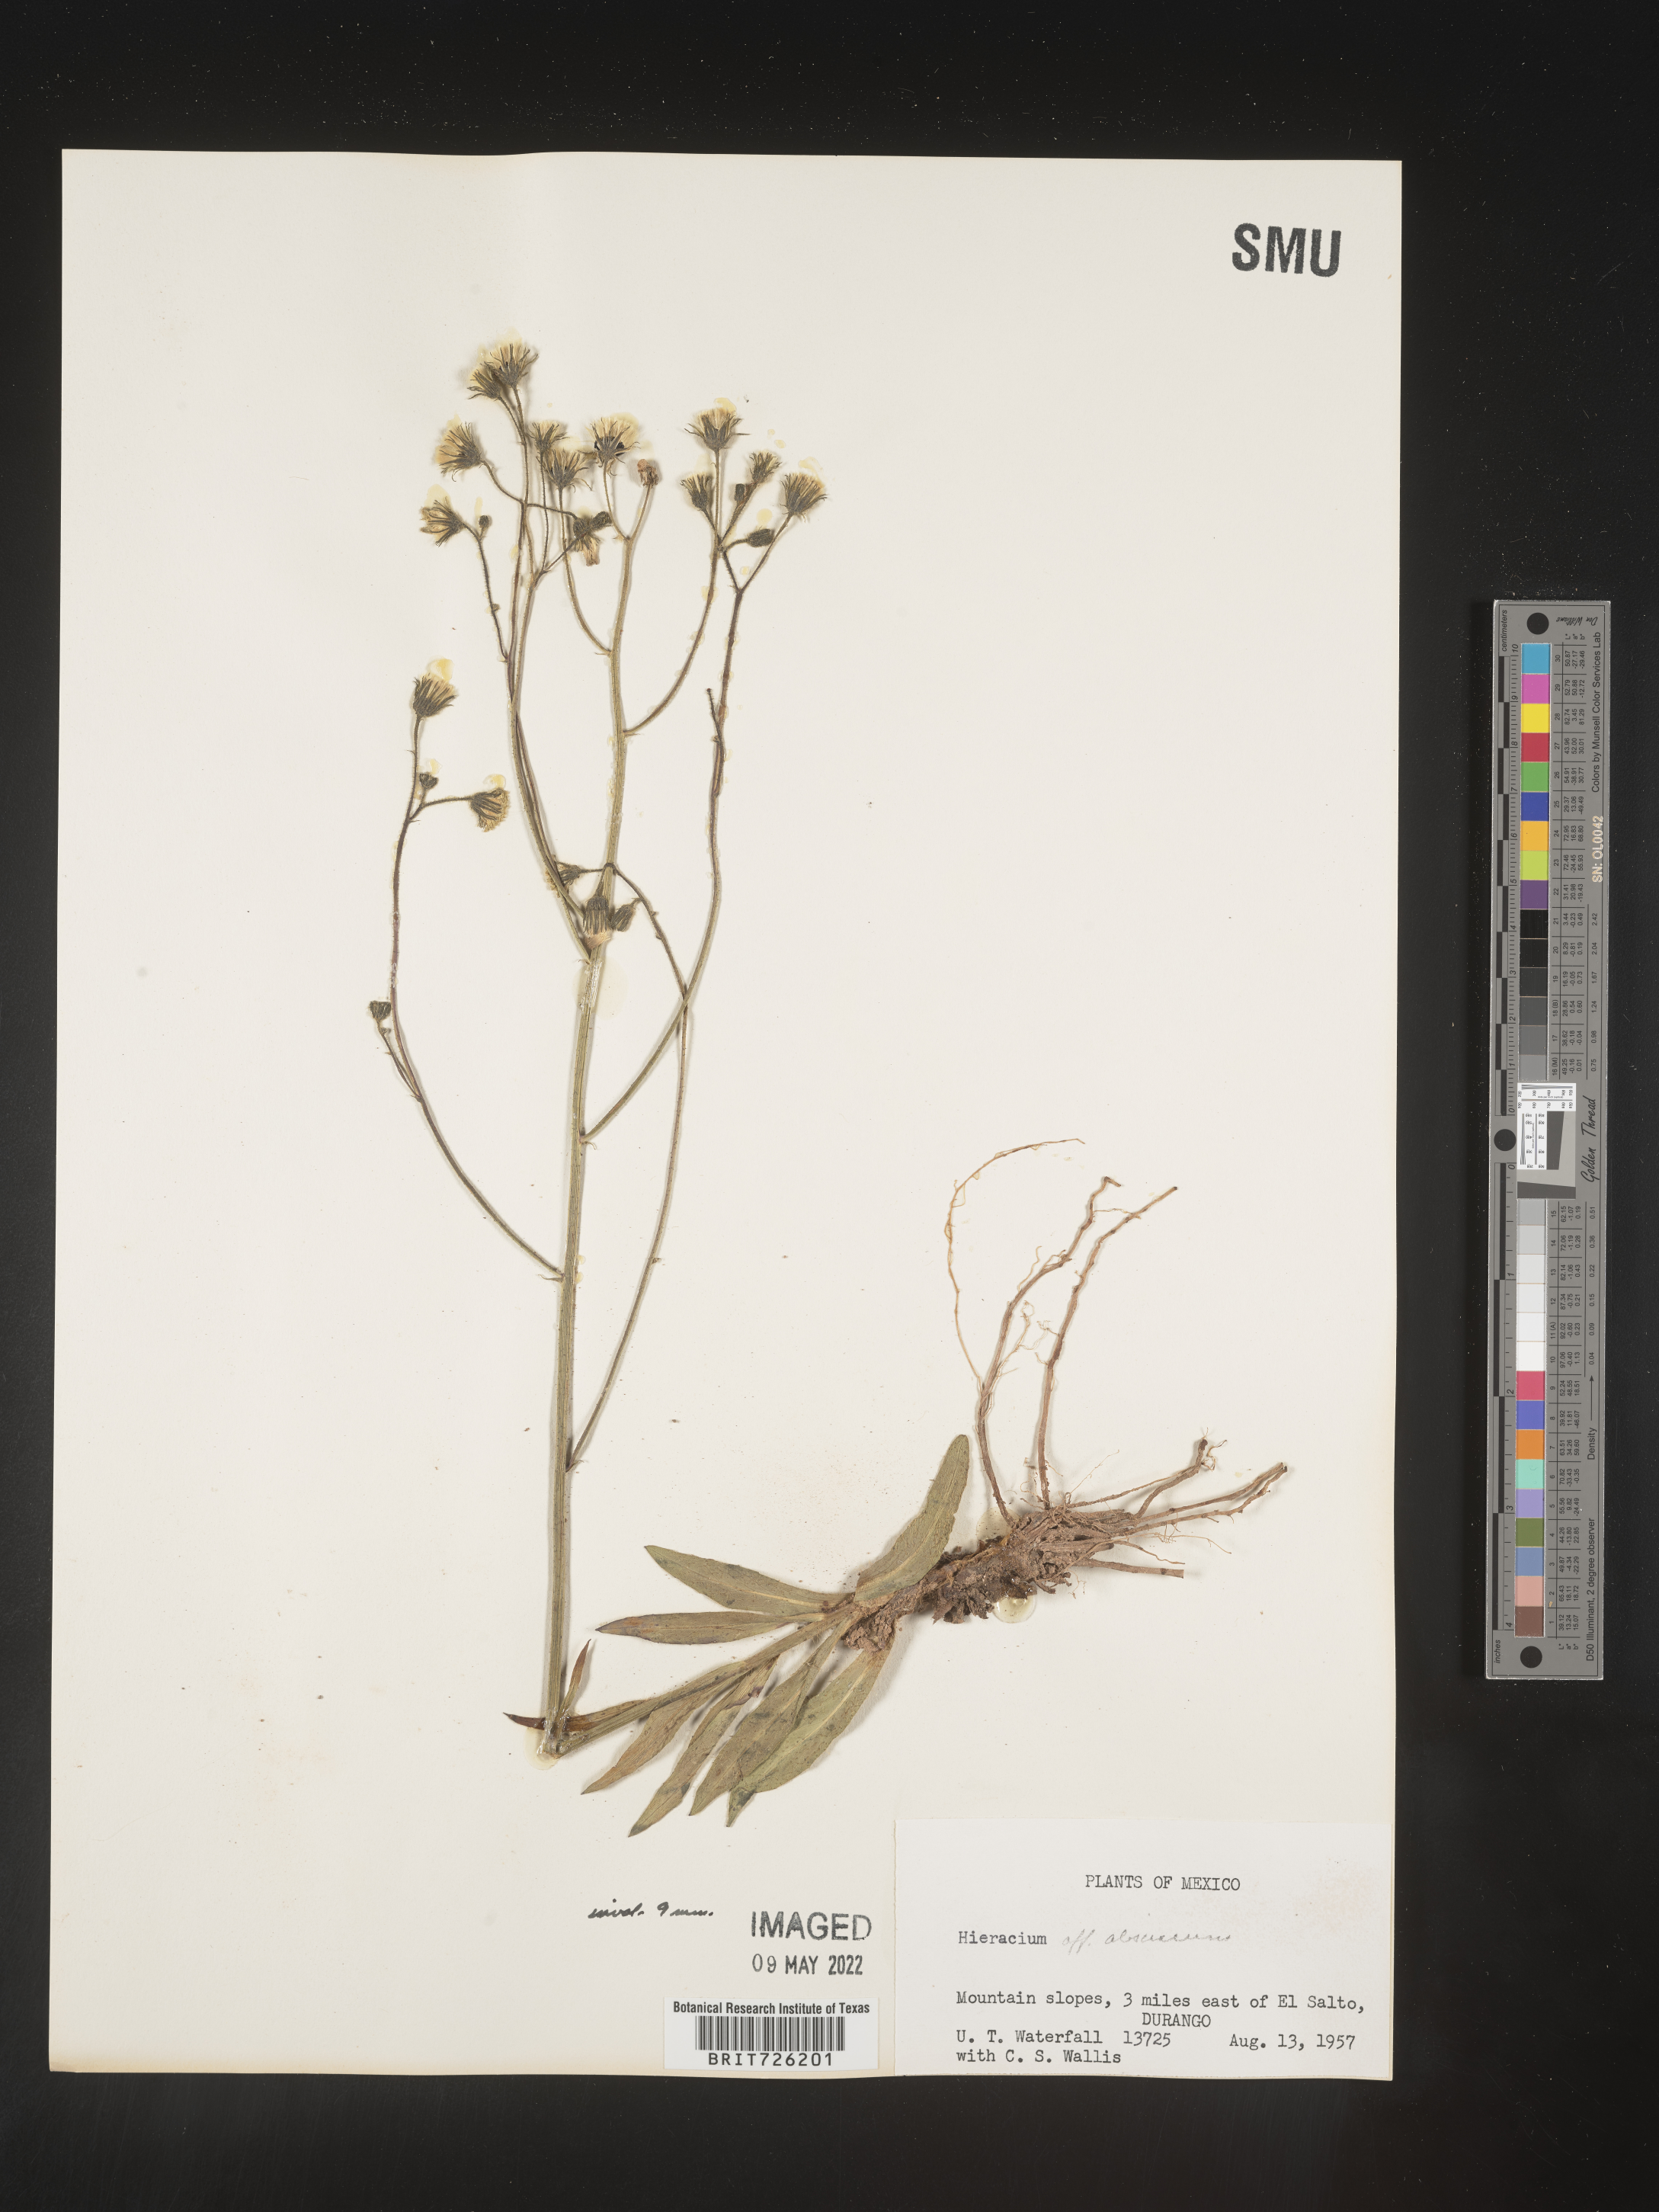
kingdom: Plantae
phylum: Tracheophyta
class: Magnoliopsida
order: Asterales
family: Asteraceae
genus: Hieracium
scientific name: Hieracium
